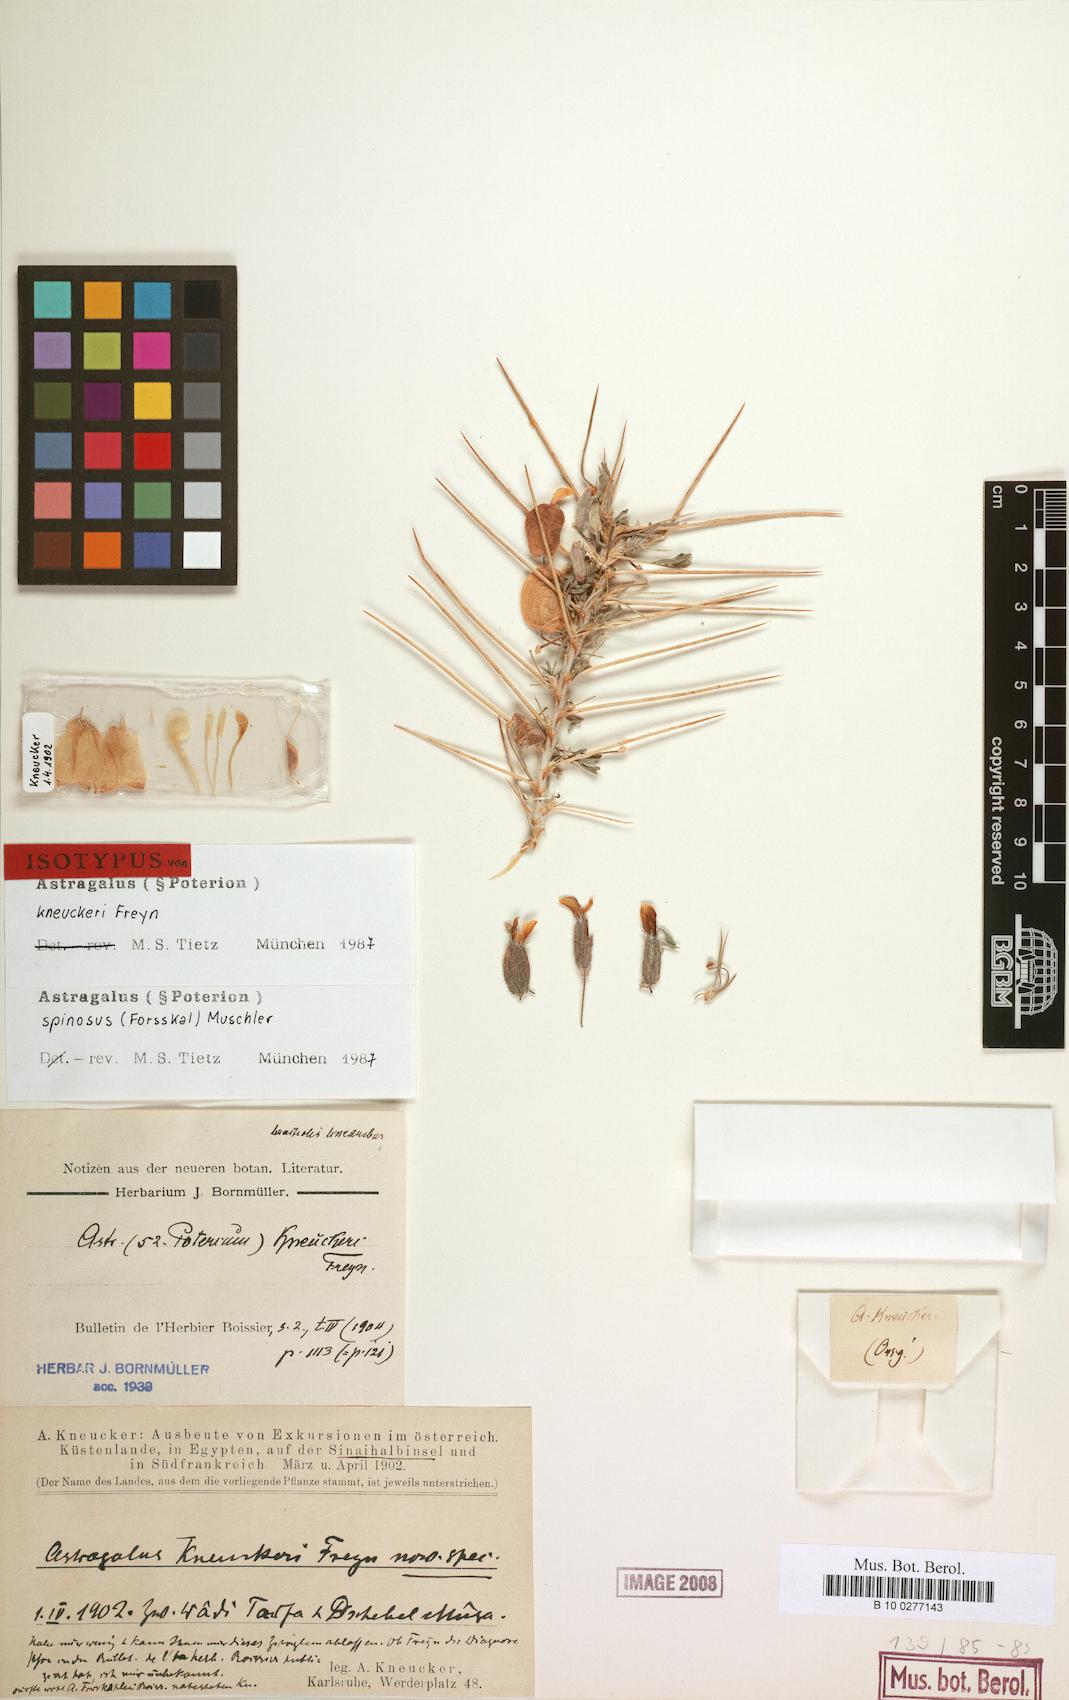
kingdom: Plantae
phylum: Tracheophyta
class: Magnoliopsida
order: Fabales
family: Fabaceae
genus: Astragalus
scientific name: Astragalus spinosus
